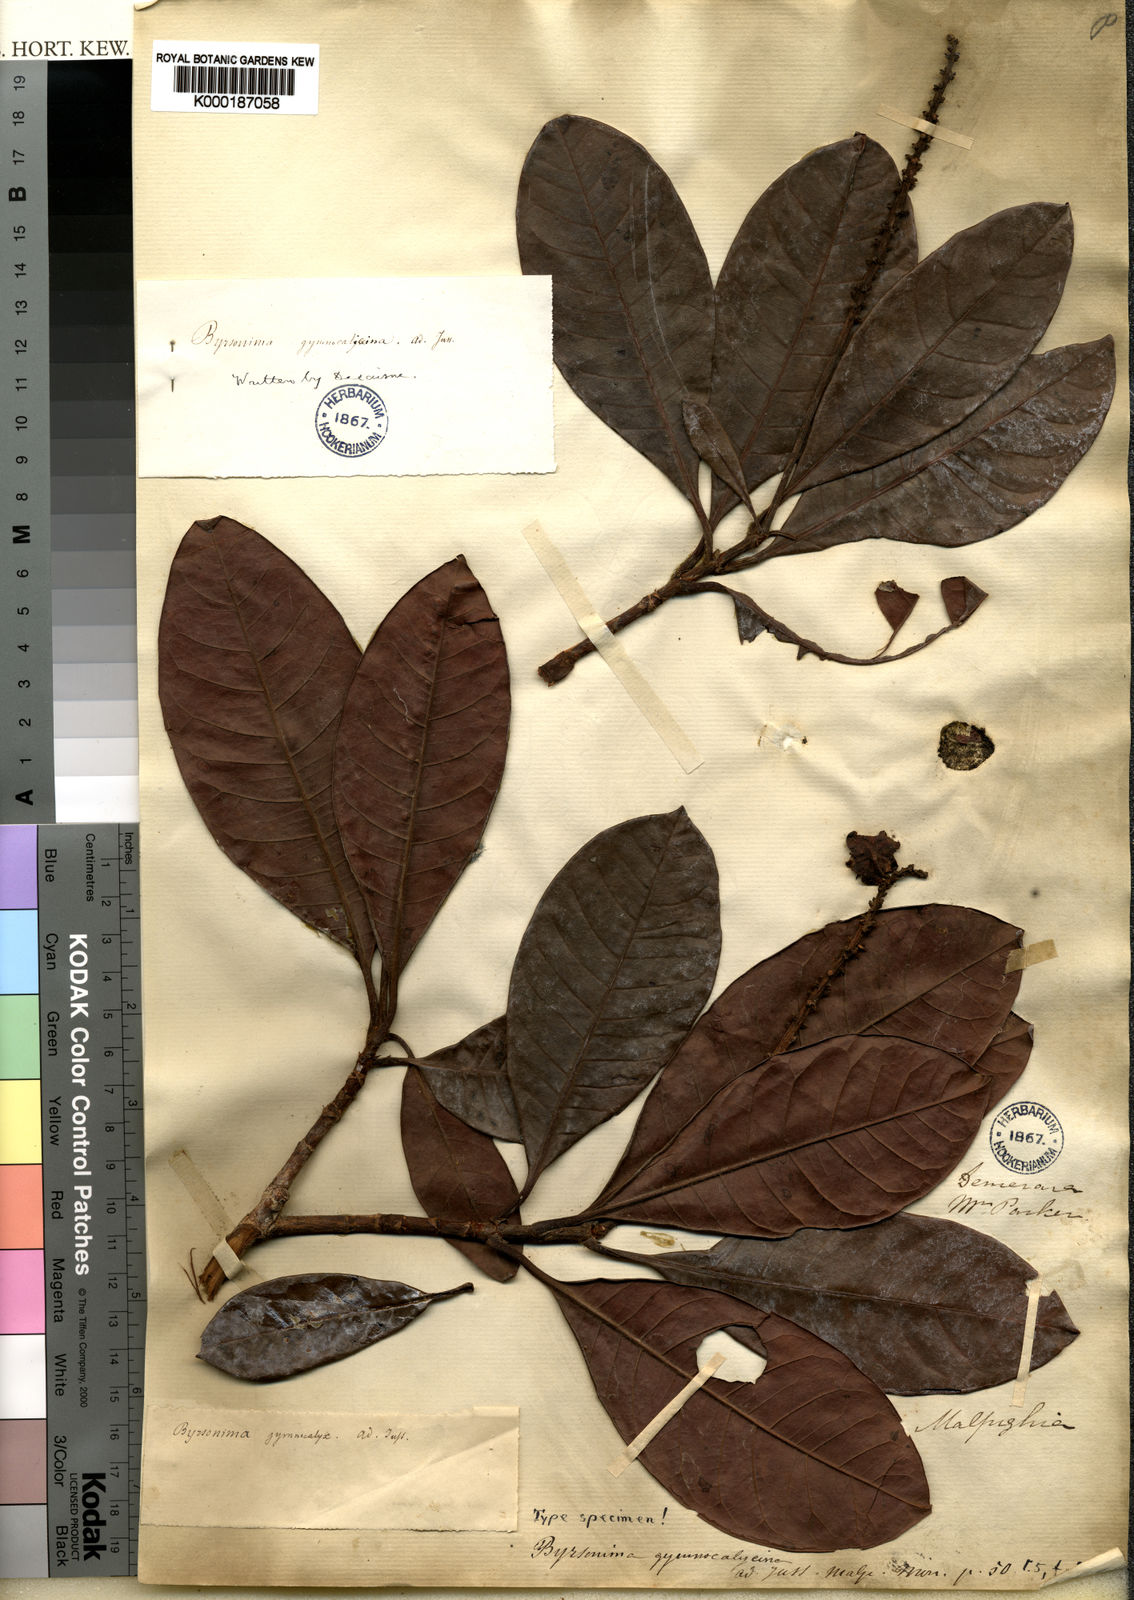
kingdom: Plantae
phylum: Tracheophyta
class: Magnoliopsida
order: Malpighiales
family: Malpighiaceae
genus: Byrsonima
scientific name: Byrsonima gymnocalycina
